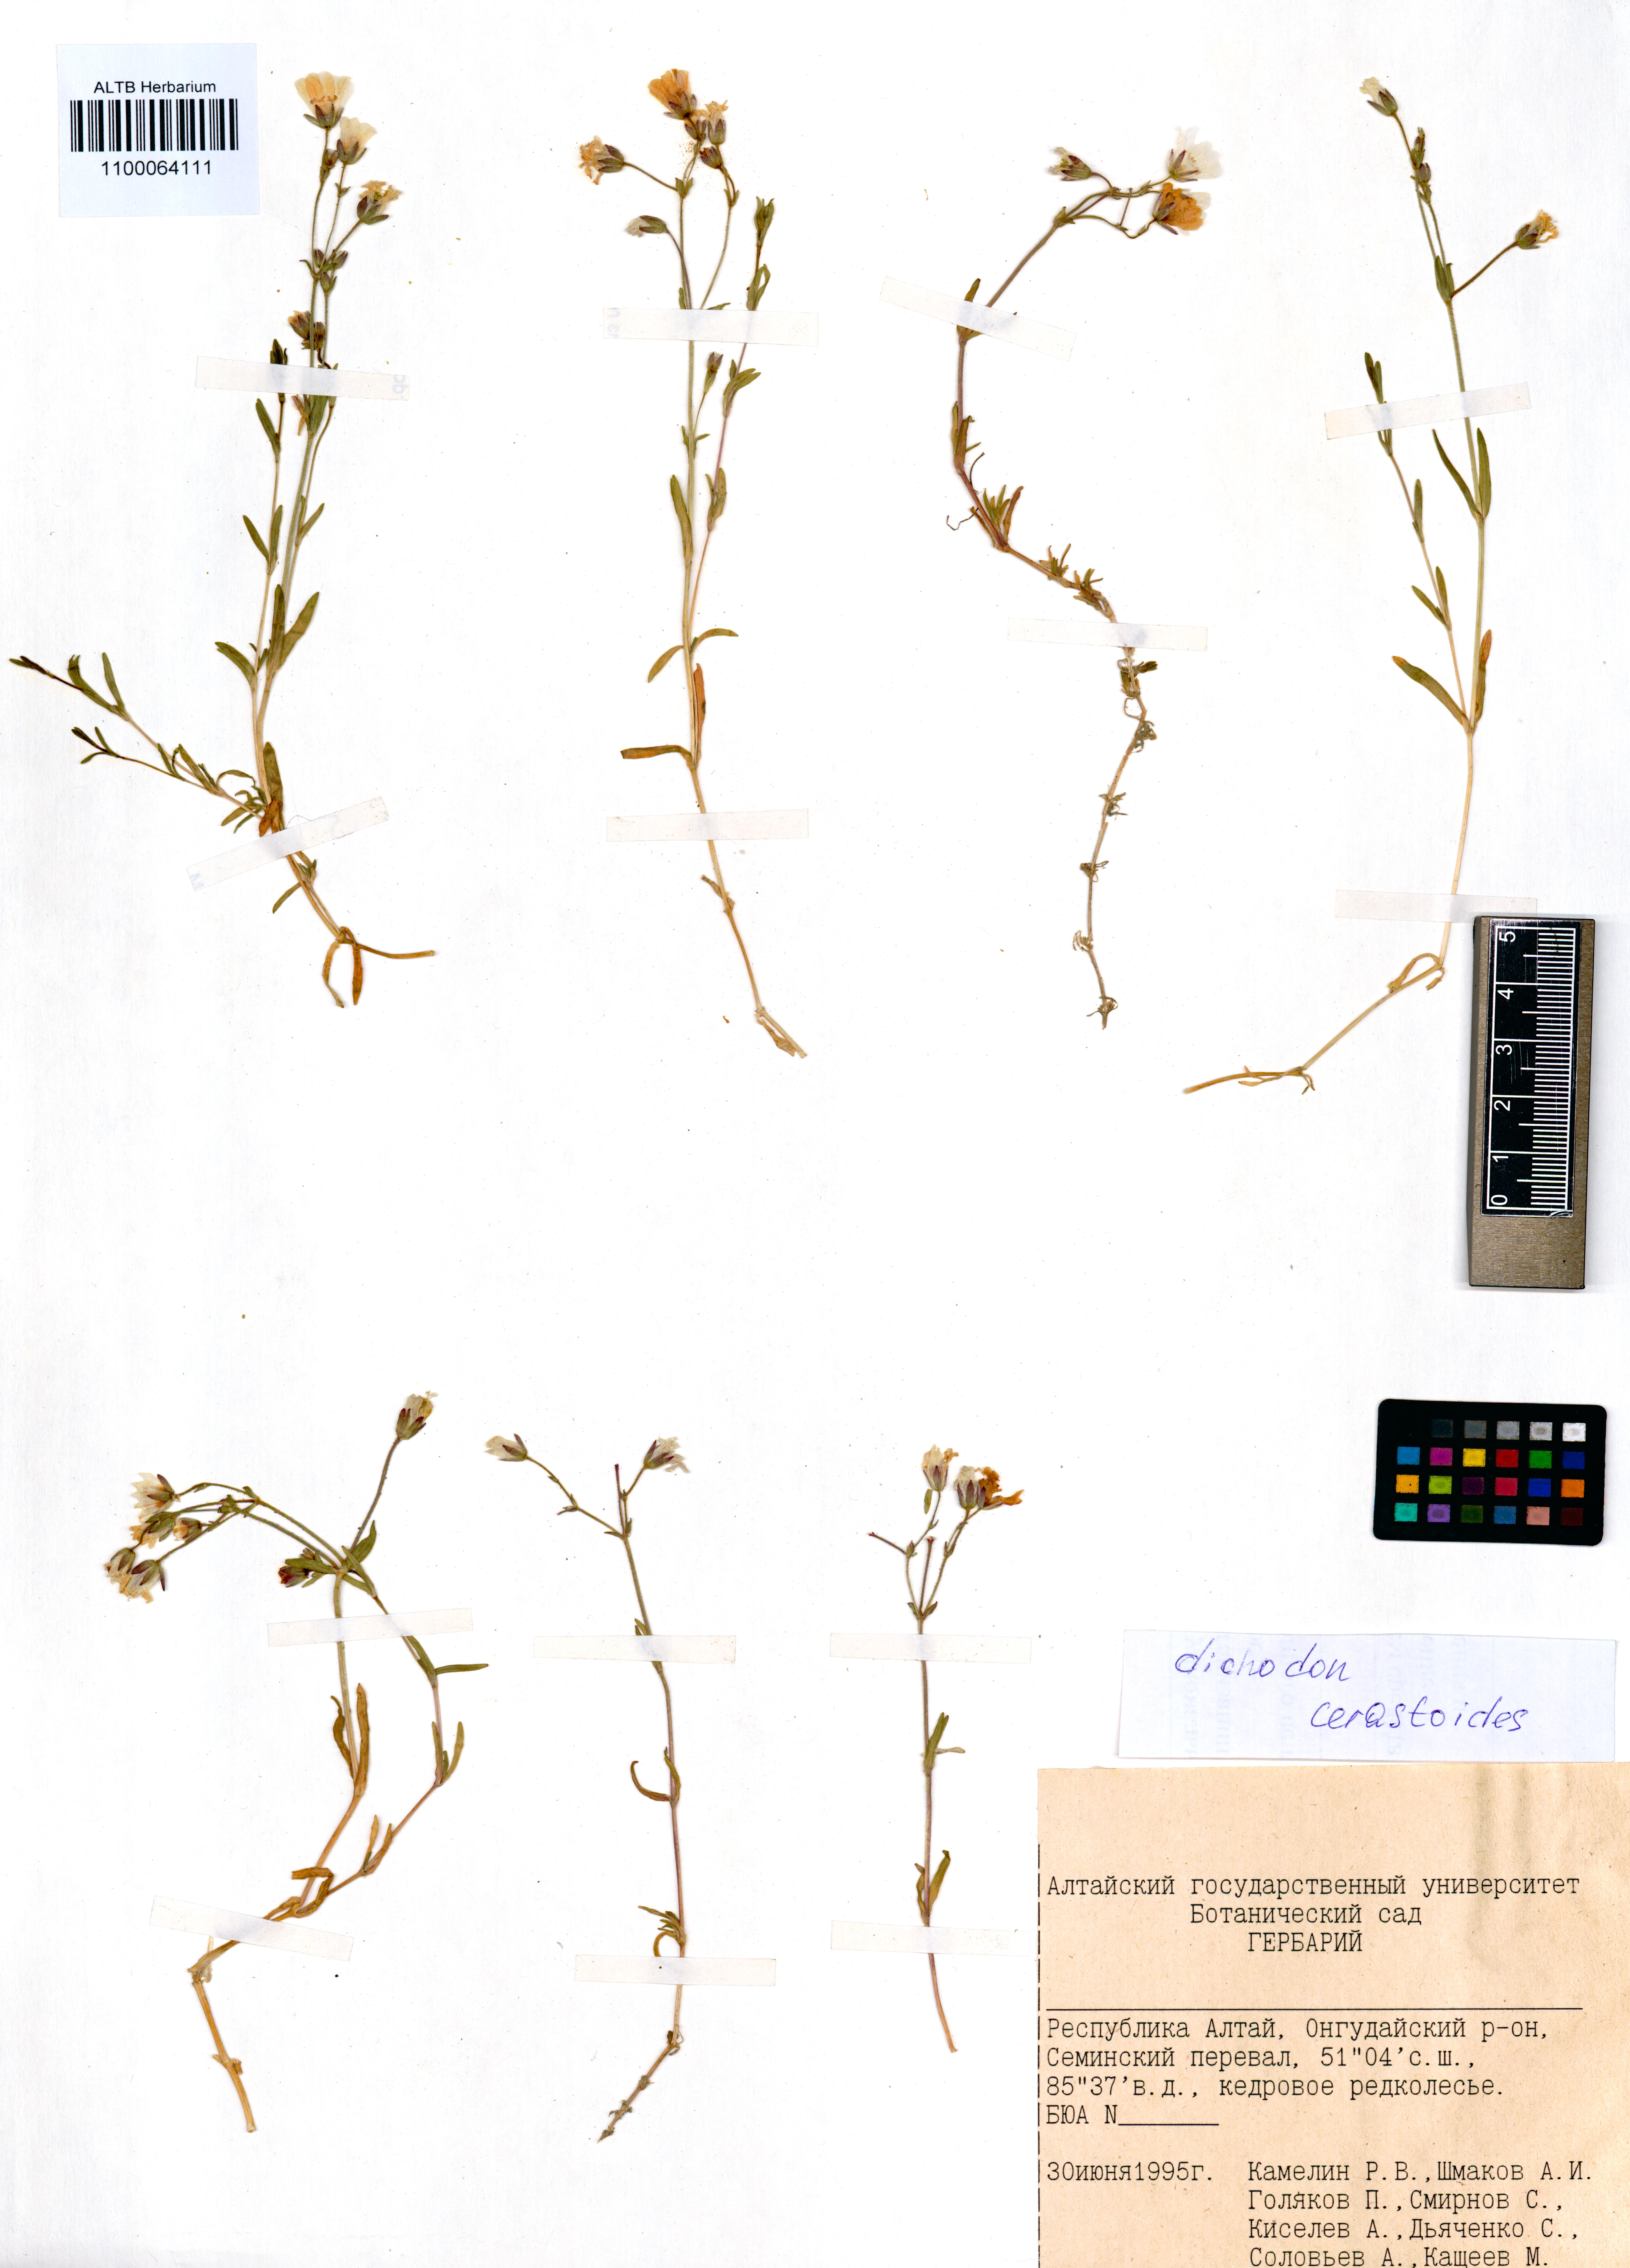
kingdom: Plantae
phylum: Tracheophyta
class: Magnoliopsida
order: Caryophyllales
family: Caryophyllaceae
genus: Dichodon
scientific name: Dichodon cerastoides
